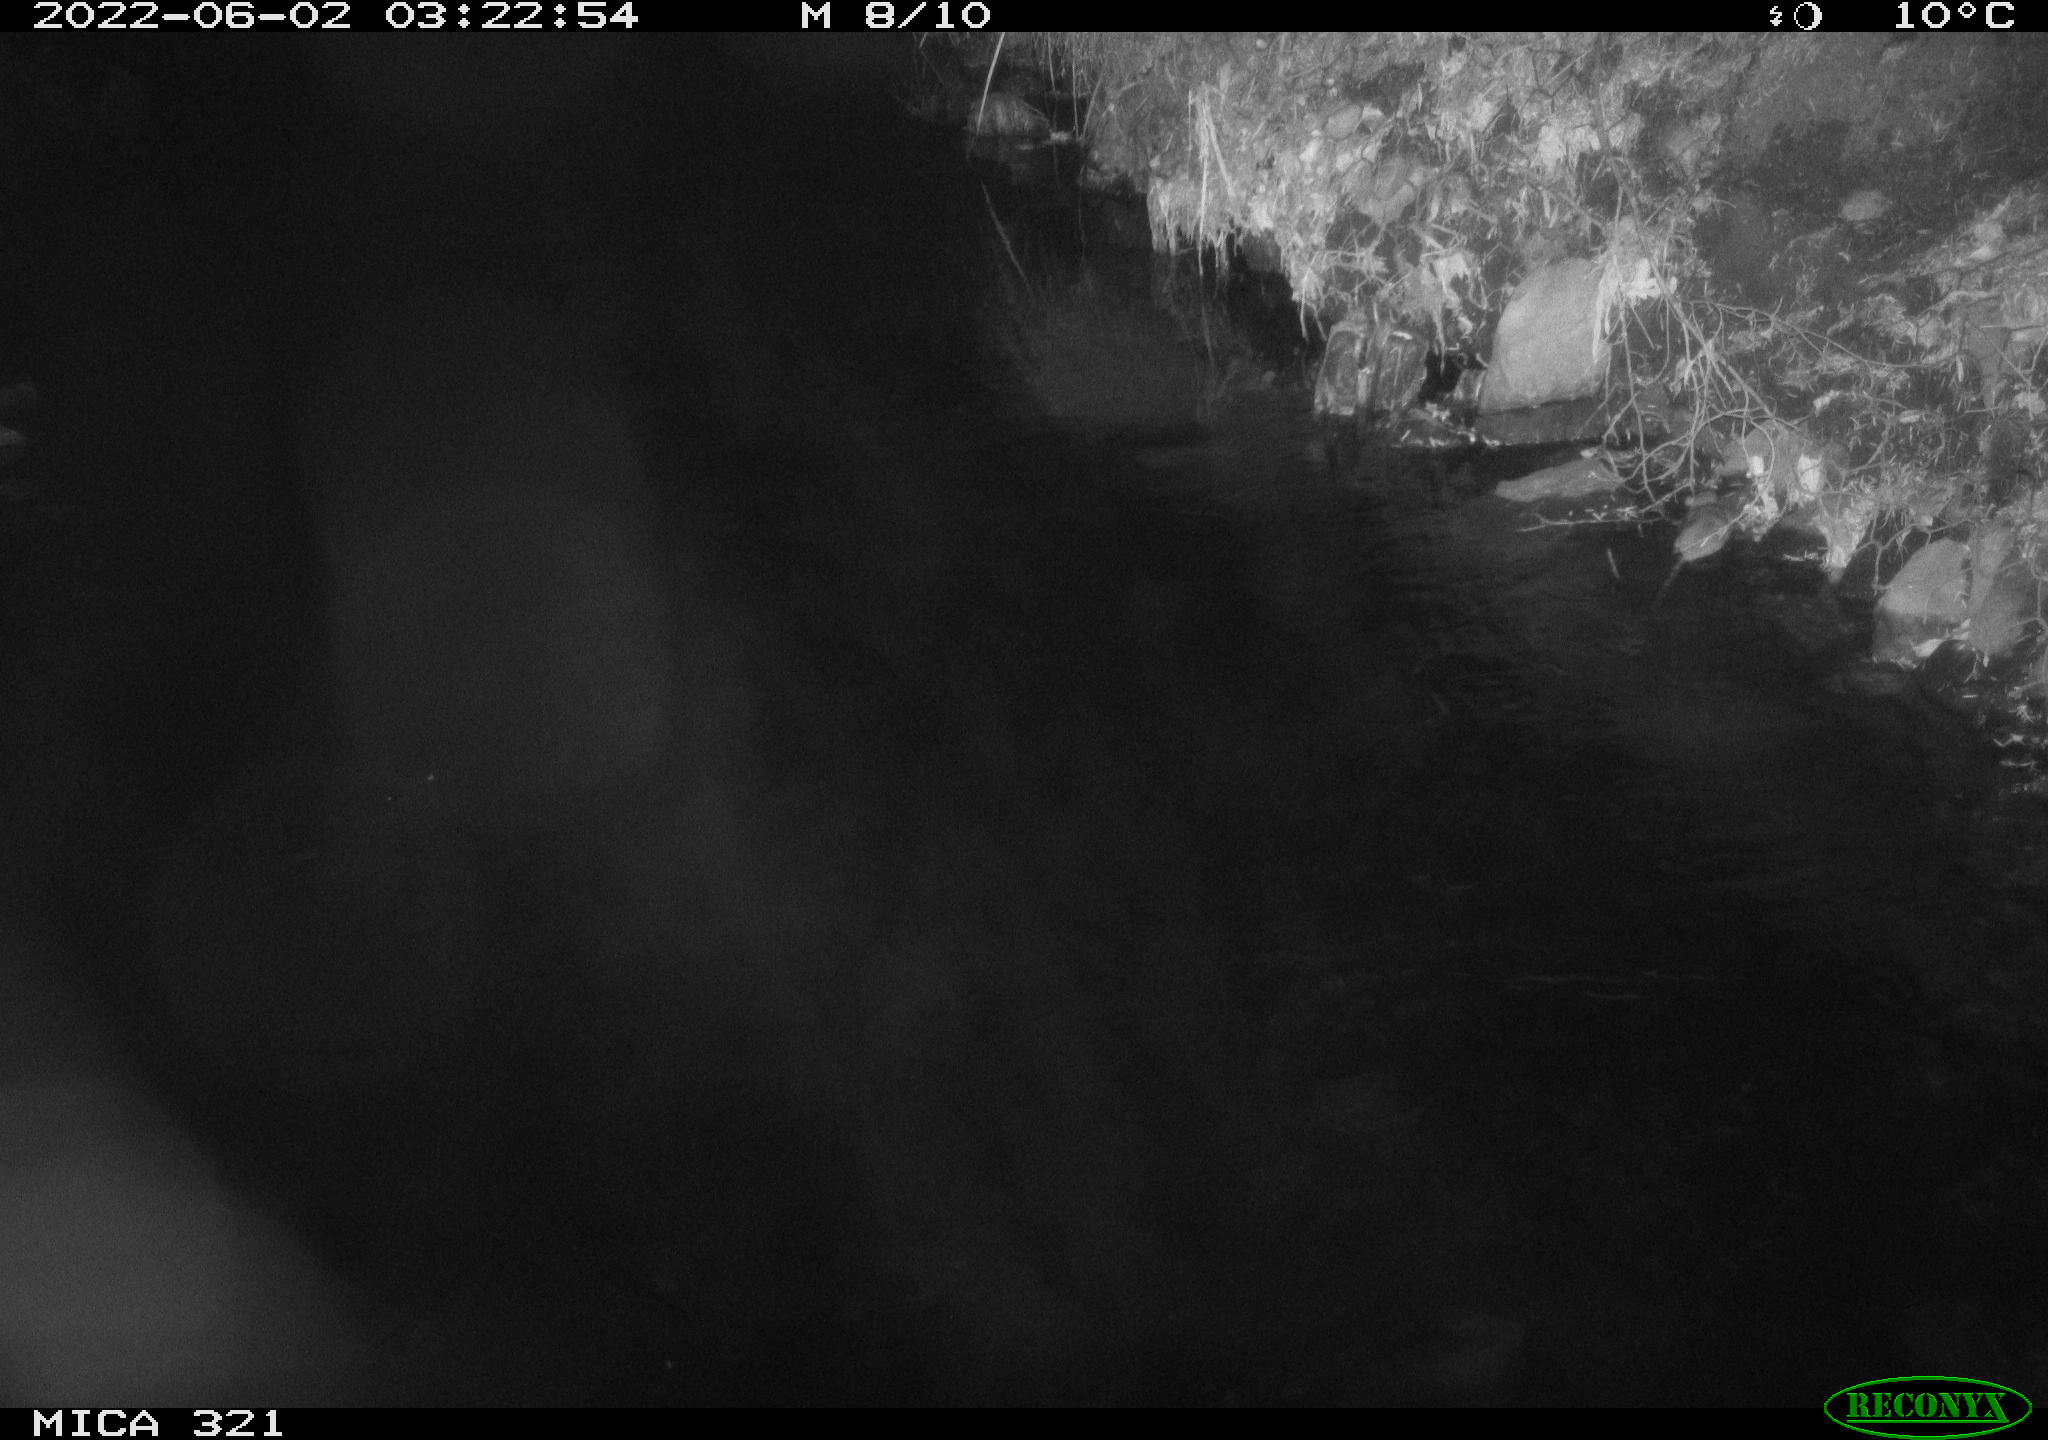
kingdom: Animalia
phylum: Chordata
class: Mammalia
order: Rodentia
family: Muridae
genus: Rattus
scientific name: Rattus norvegicus
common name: Brown rat
